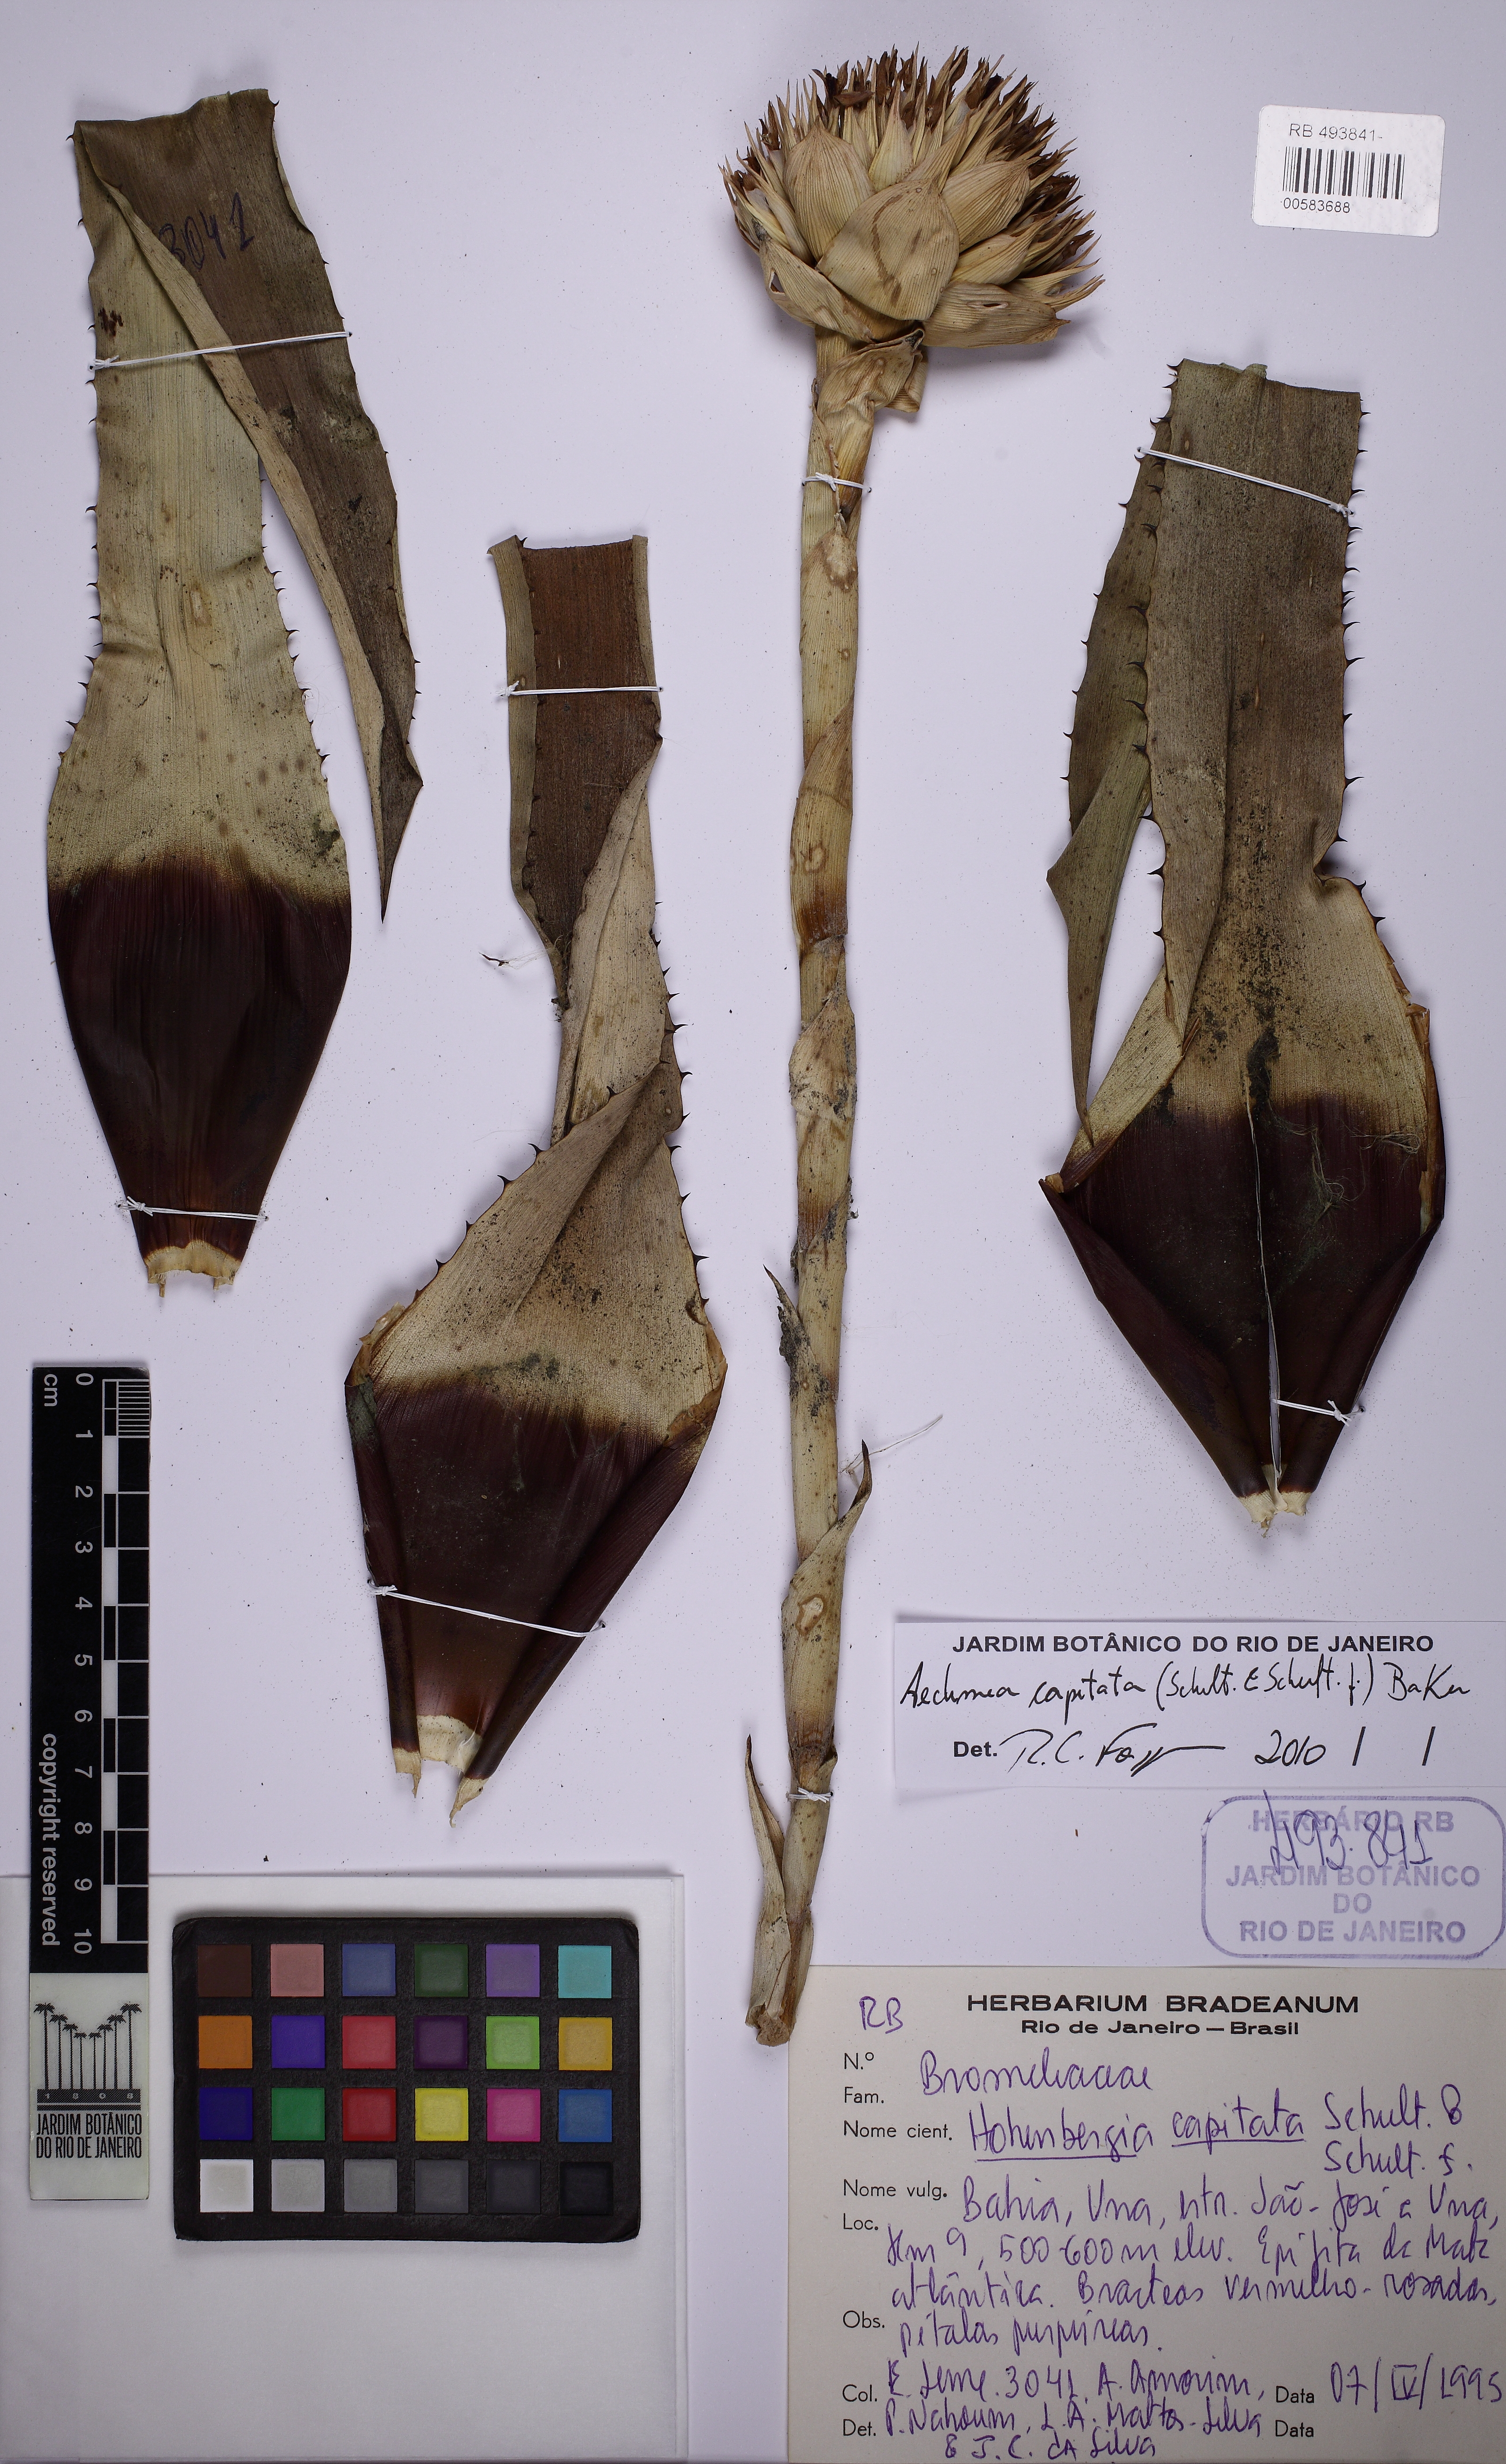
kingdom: Plantae
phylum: Tracheophyta
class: Liliopsida
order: Poales
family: Bromeliaceae
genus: Hohenbergia
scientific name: Hohenbergia capitata
